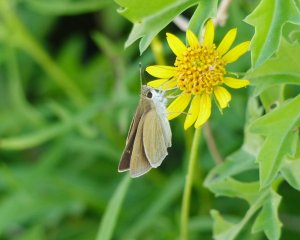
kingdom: Animalia
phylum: Arthropoda
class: Insecta
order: Lepidoptera
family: Hesperiidae
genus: Lerodea
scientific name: Lerodea eufala
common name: Eufala Skipper
